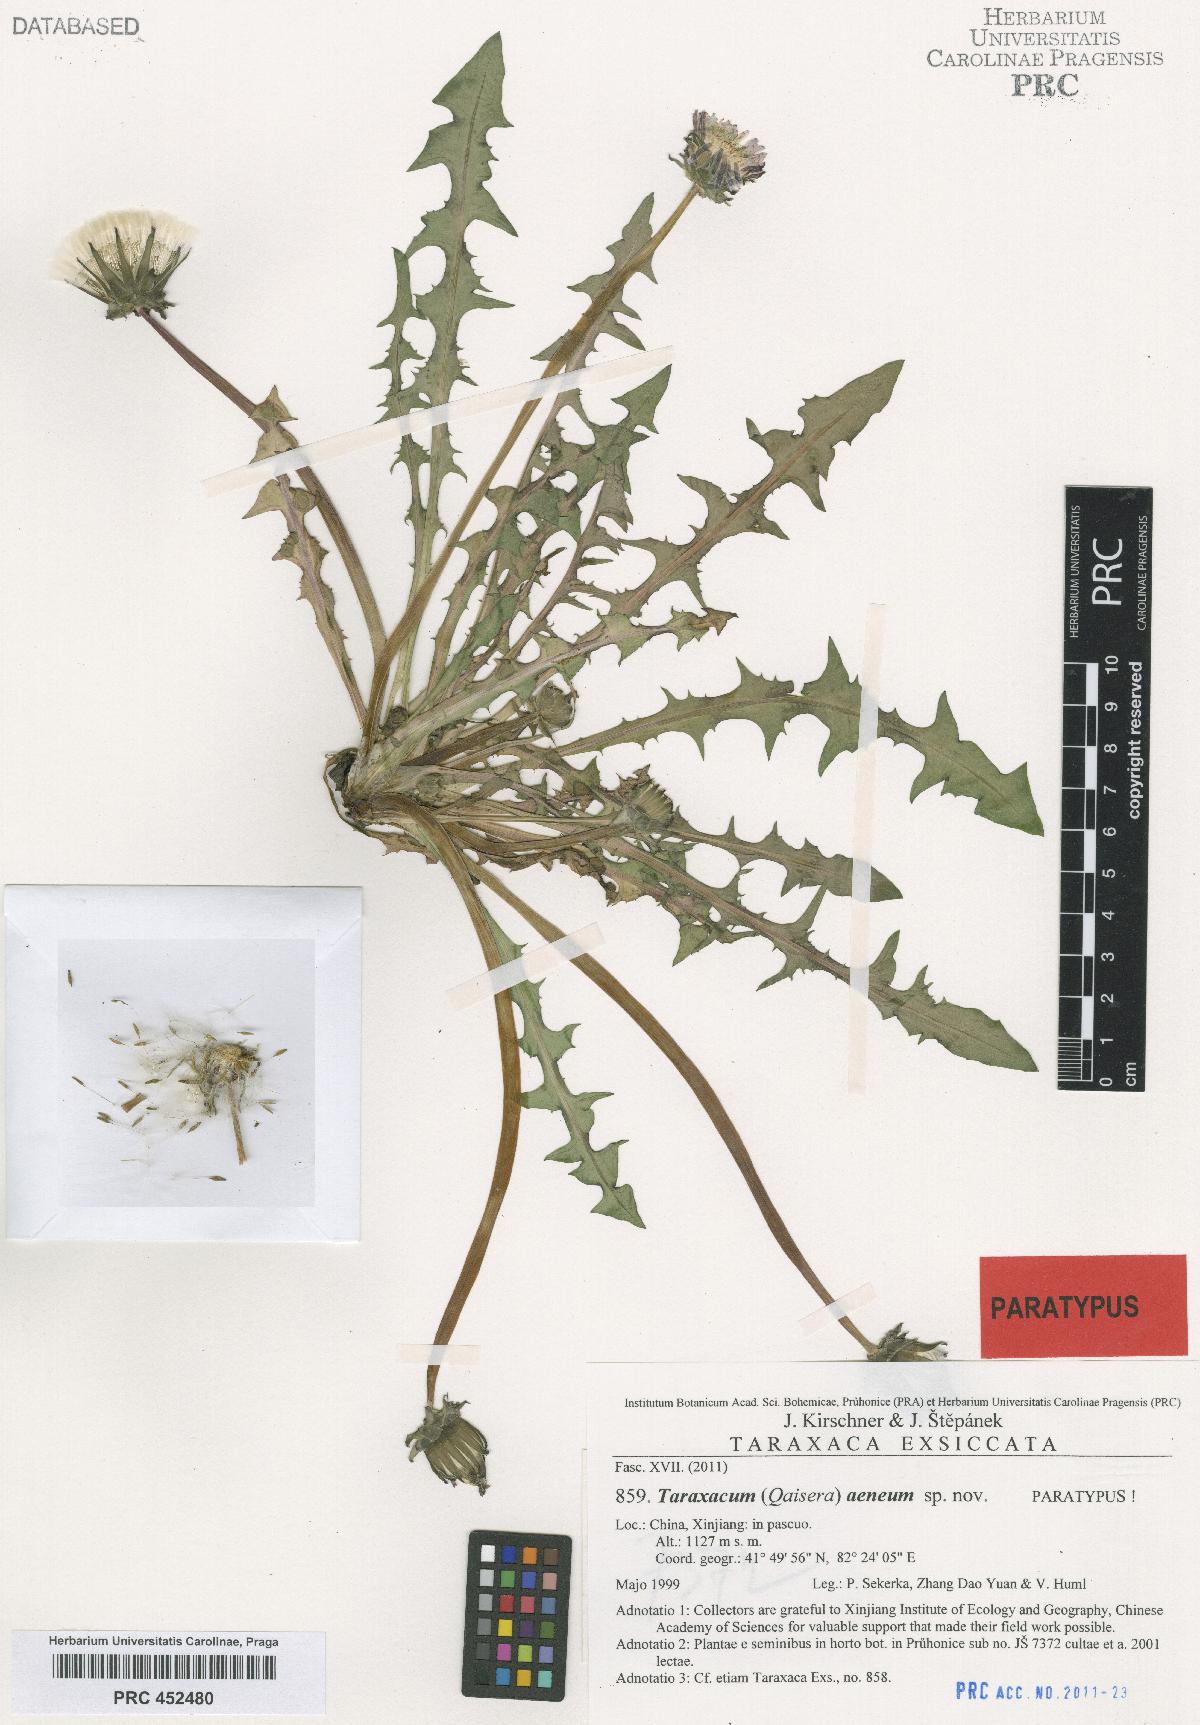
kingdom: Plantae
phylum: Tracheophyta
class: Magnoliopsida
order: Asterales
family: Asteraceae
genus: Taraxacum
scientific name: Taraxacum aeneum
